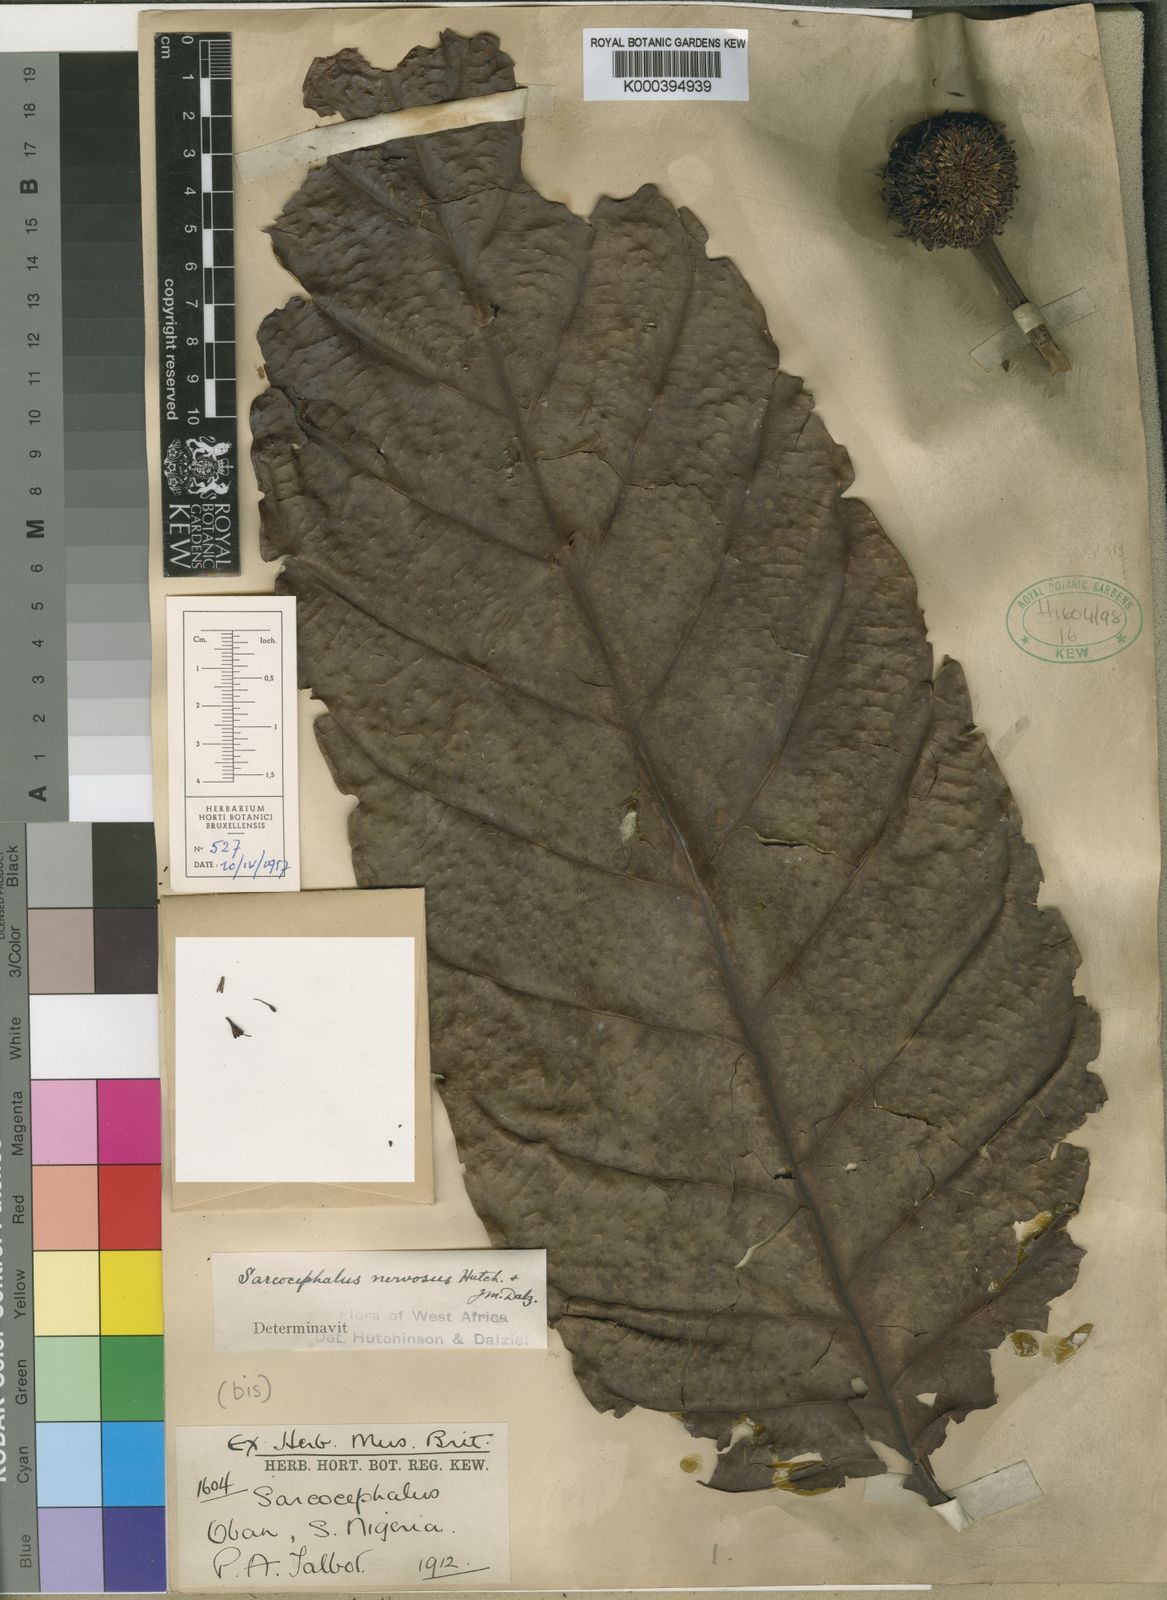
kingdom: Plantae
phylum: Tracheophyta
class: Magnoliopsida
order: Gentianales
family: Rubiaceae
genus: Nauclea
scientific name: Nauclea vanderguchtii
